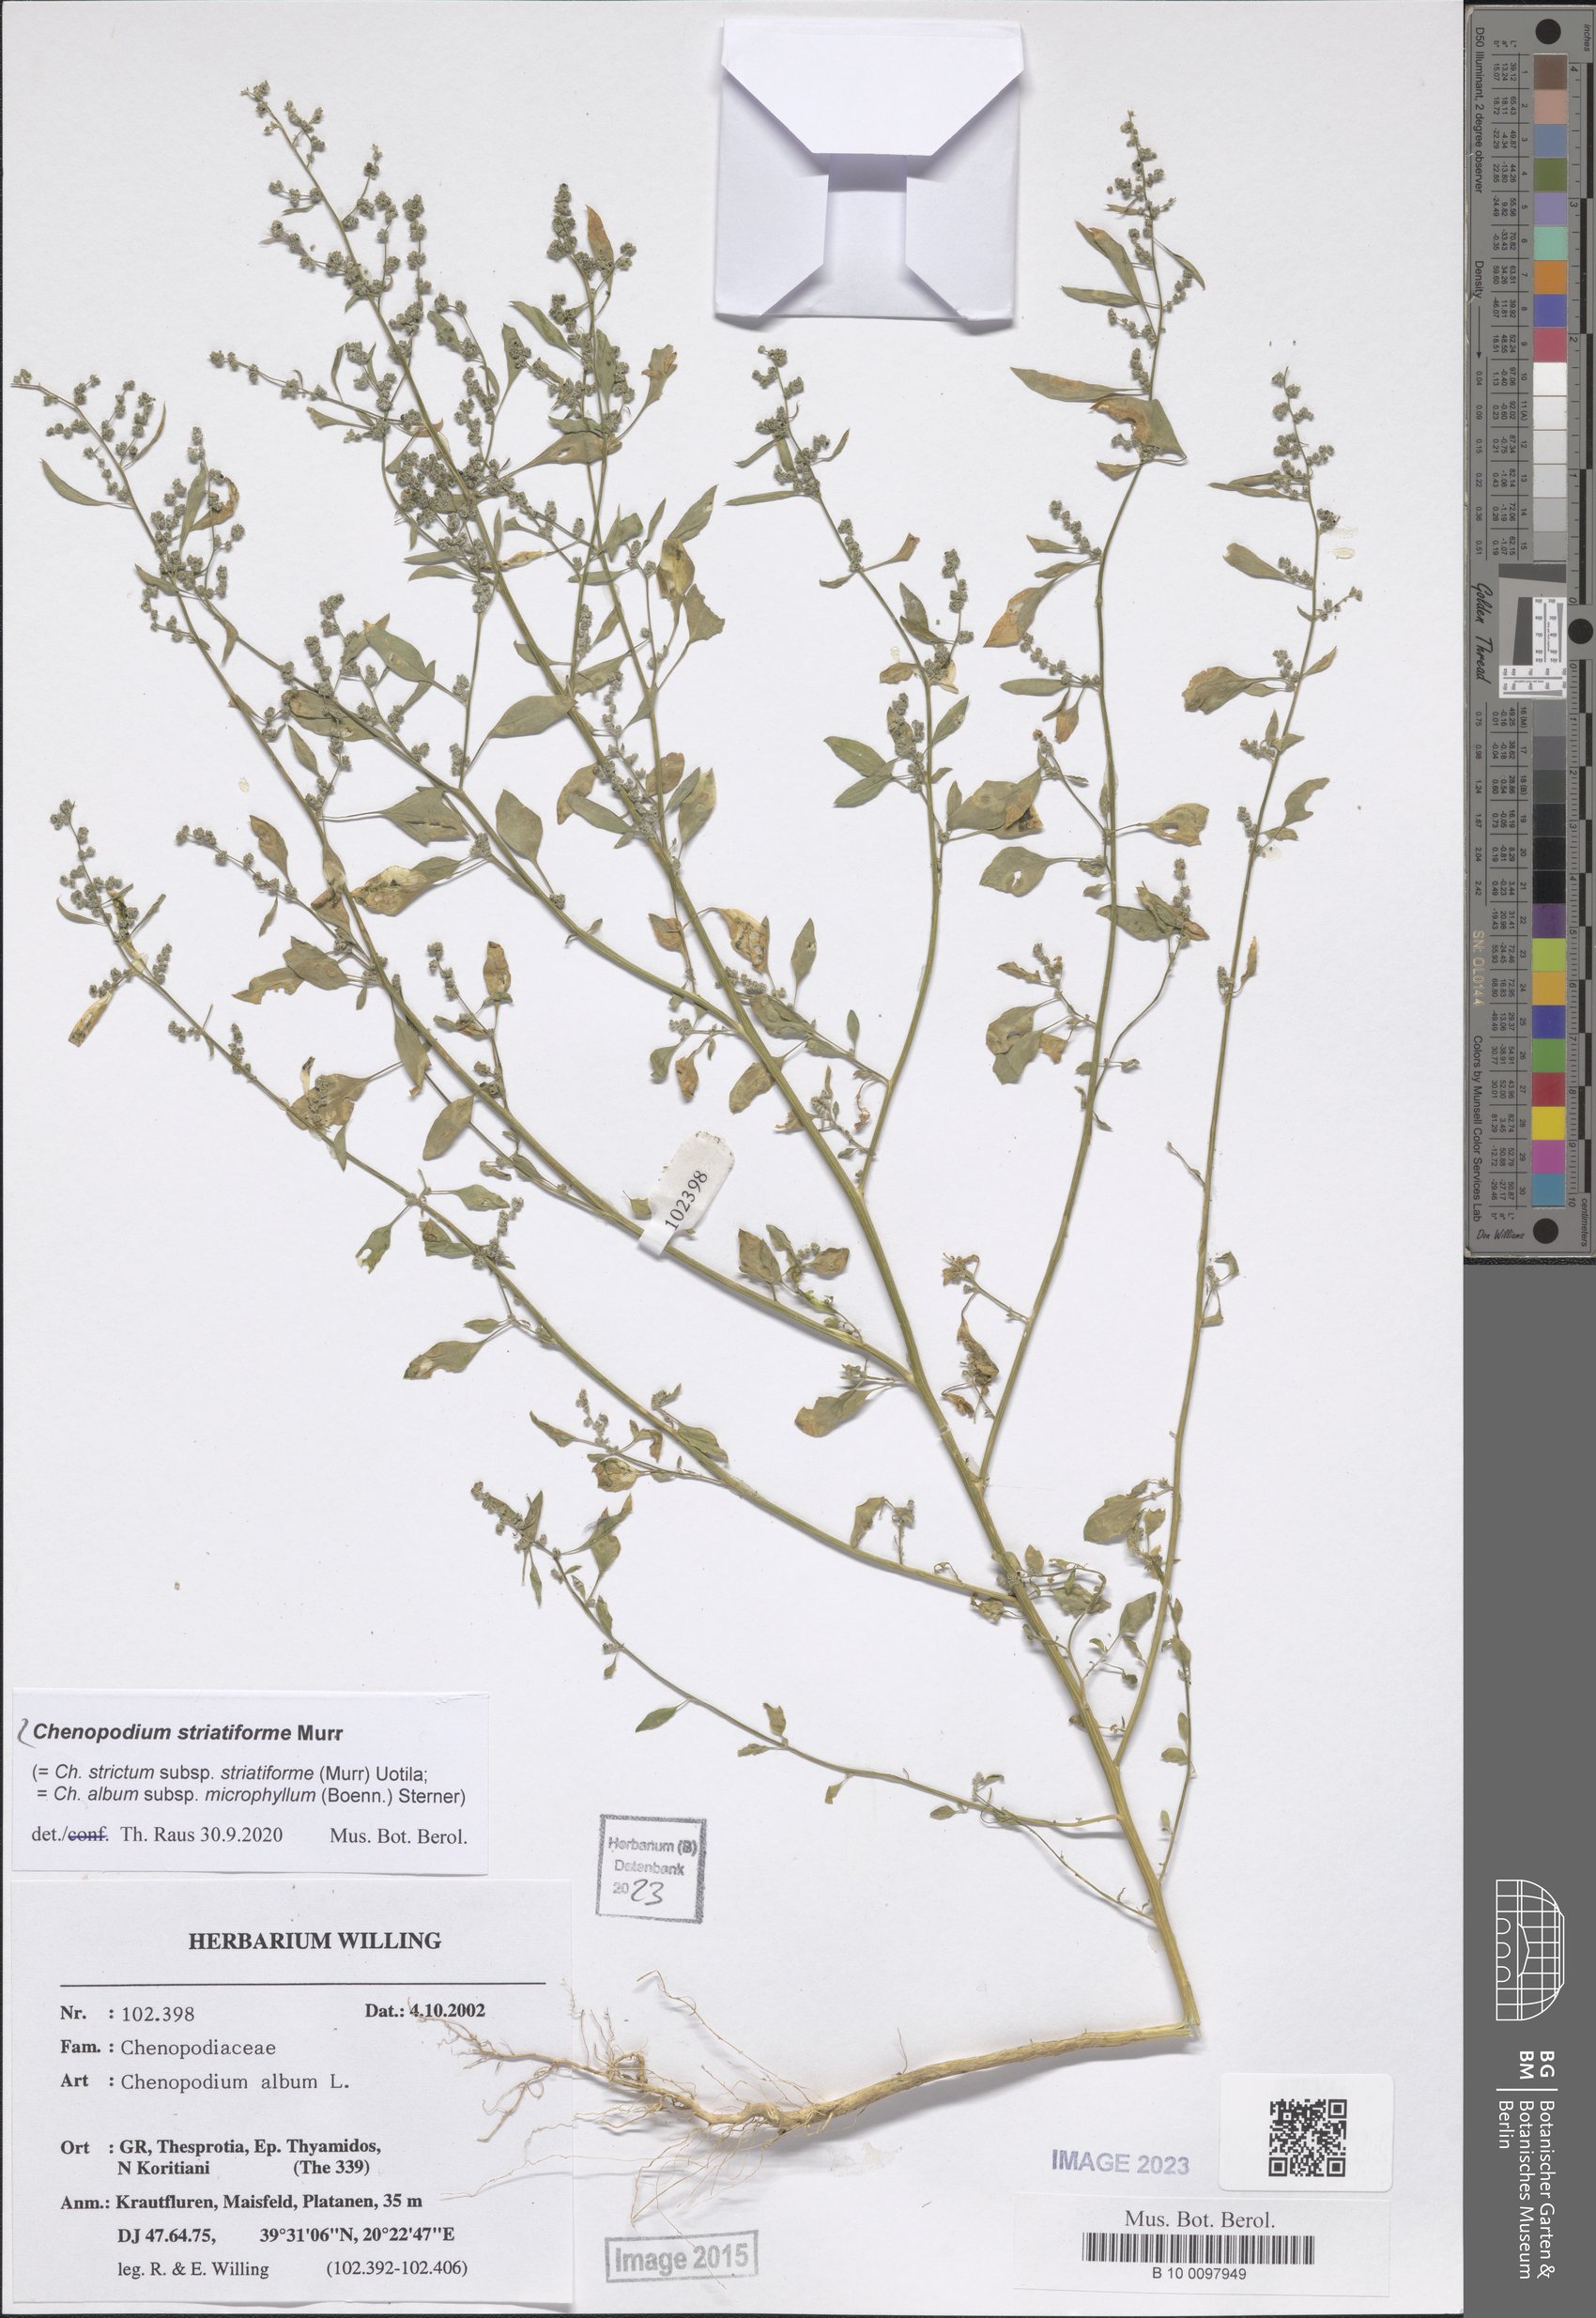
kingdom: Plantae
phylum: Tracheophyta
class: Magnoliopsida
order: Caryophyllales
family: Amaranthaceae
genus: Chenopodium
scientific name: Chenopodium striatiforme
